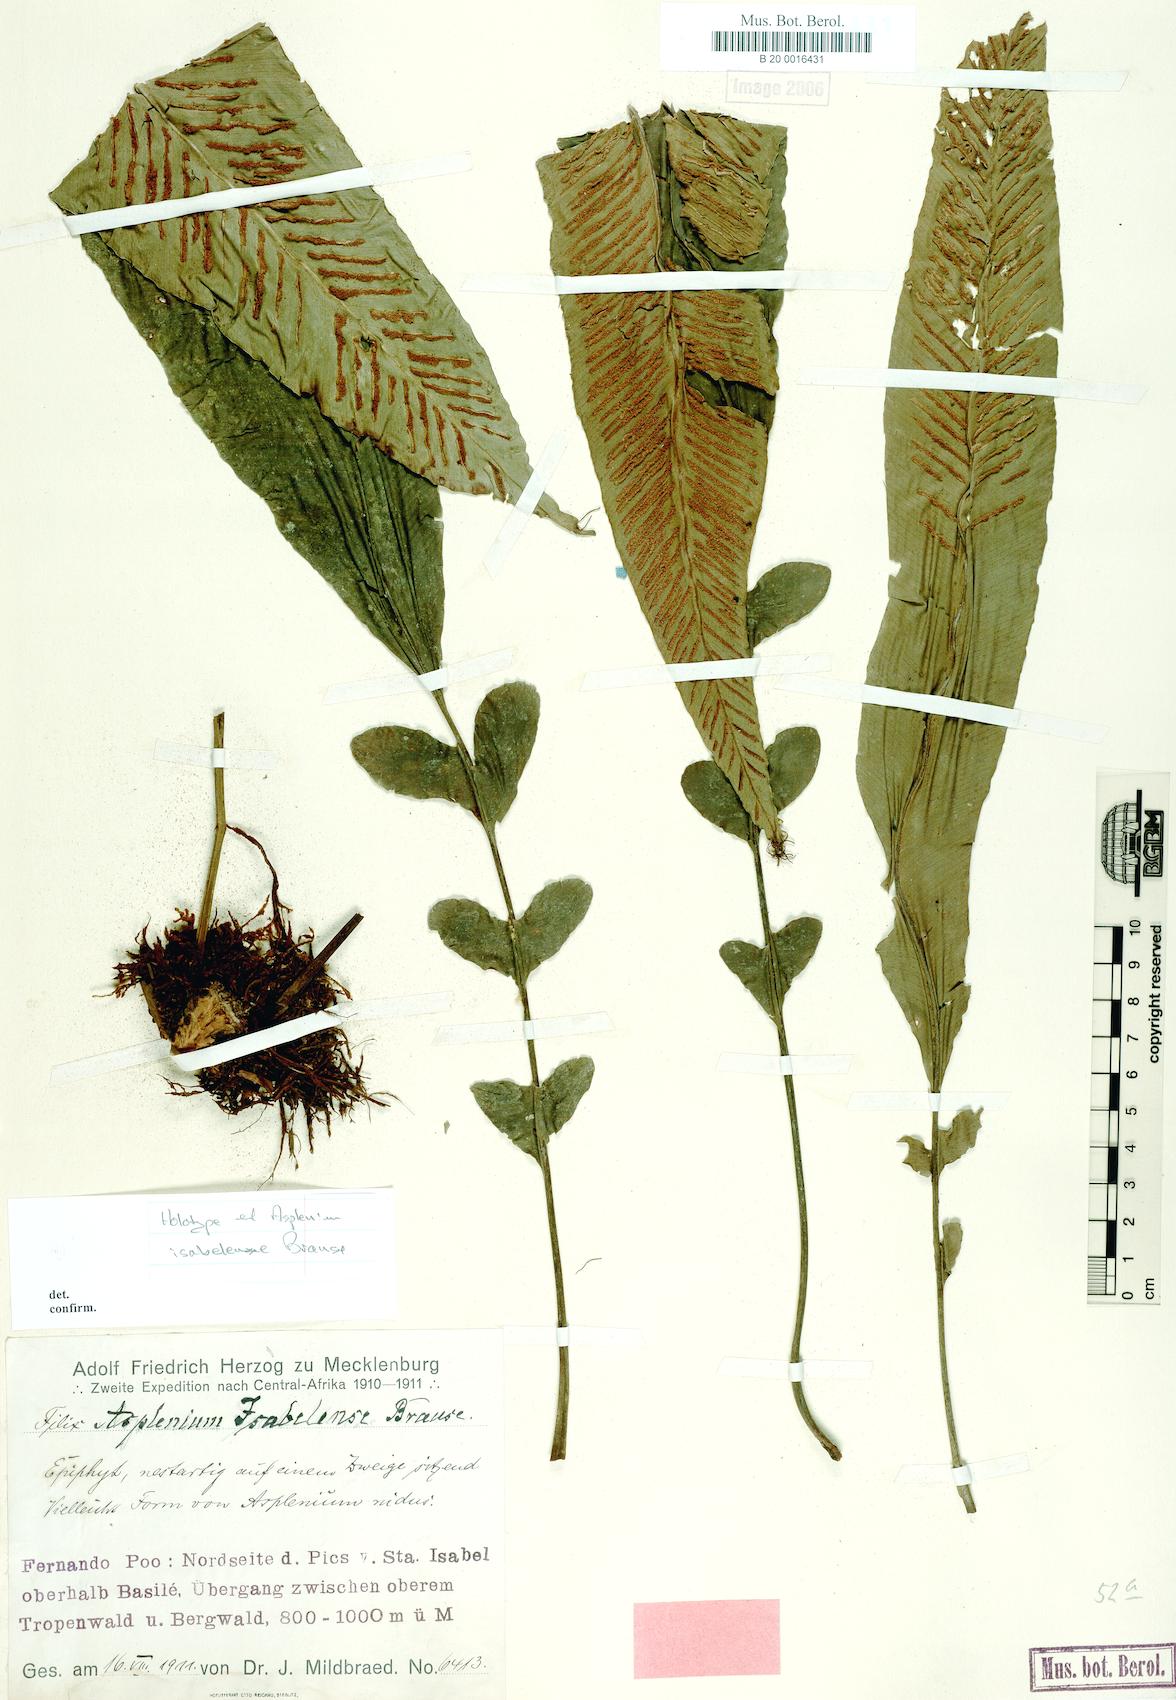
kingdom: Plantae
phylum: Tracheophyta
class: Polypodiopsida
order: Polypodiales
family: Aspleniaceae
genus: Asplenium
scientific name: Asplenium isabelense
